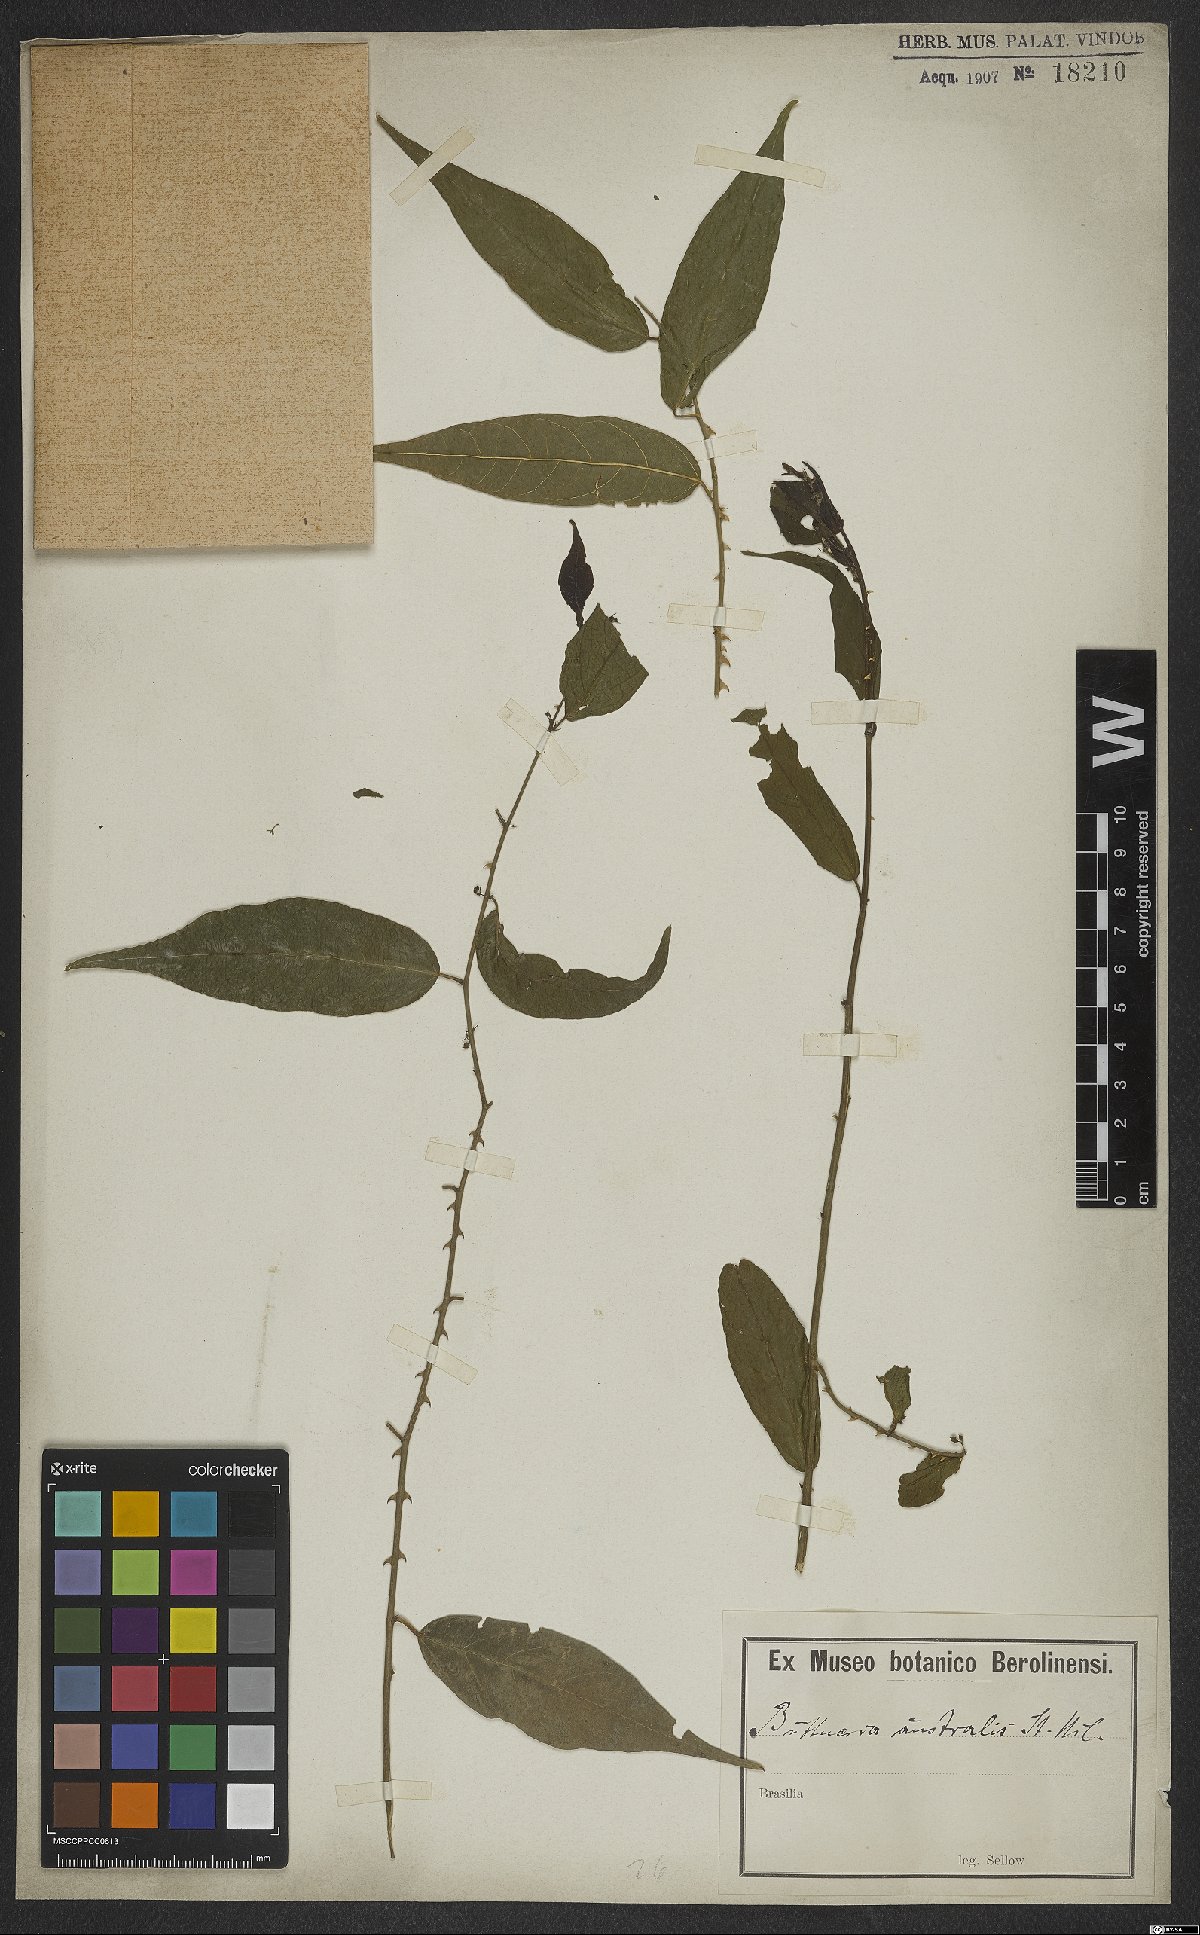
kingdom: Plantae
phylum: Tracheophyta
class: Magnoliopsida
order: Malvales
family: Malvaceae
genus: Byttneria
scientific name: Byttneria australis
